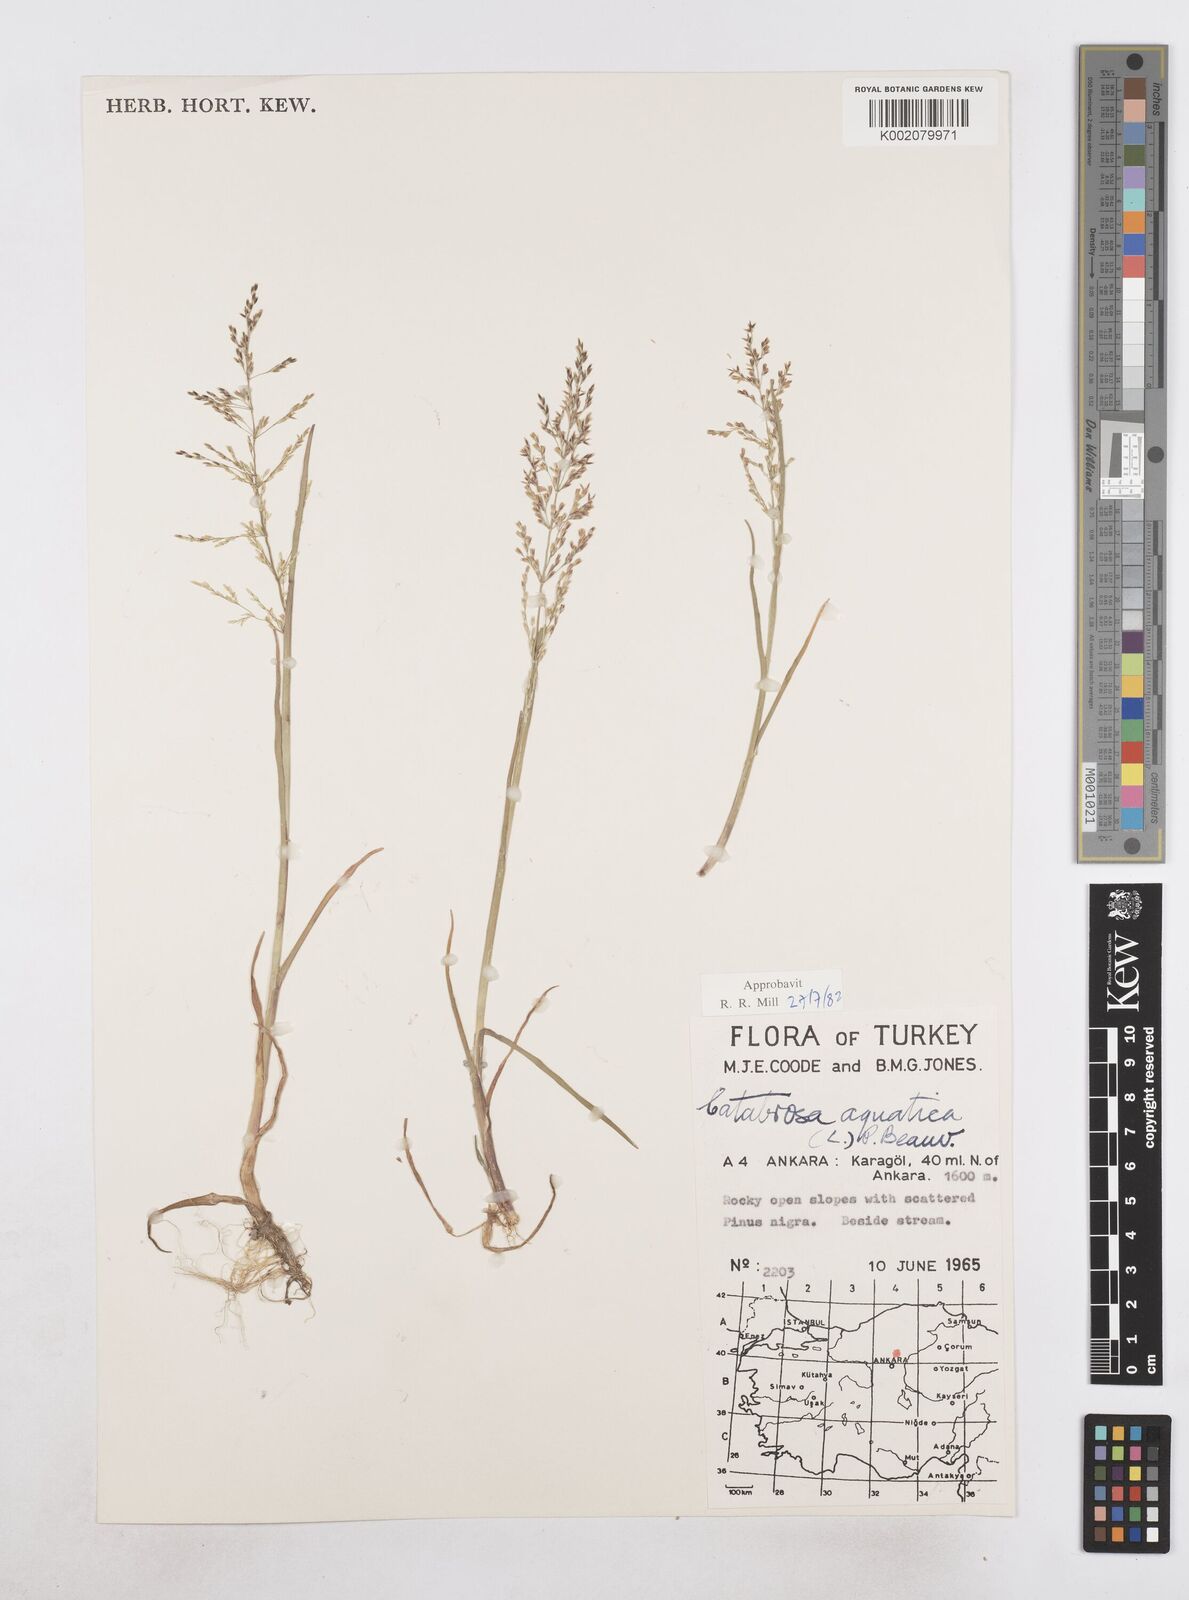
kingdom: Plantae
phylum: Tracheophyta
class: Liliopsida
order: Poales
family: Poaceae
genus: Catabrosa
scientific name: Catabrosa aquatica
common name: Whorl-grass
